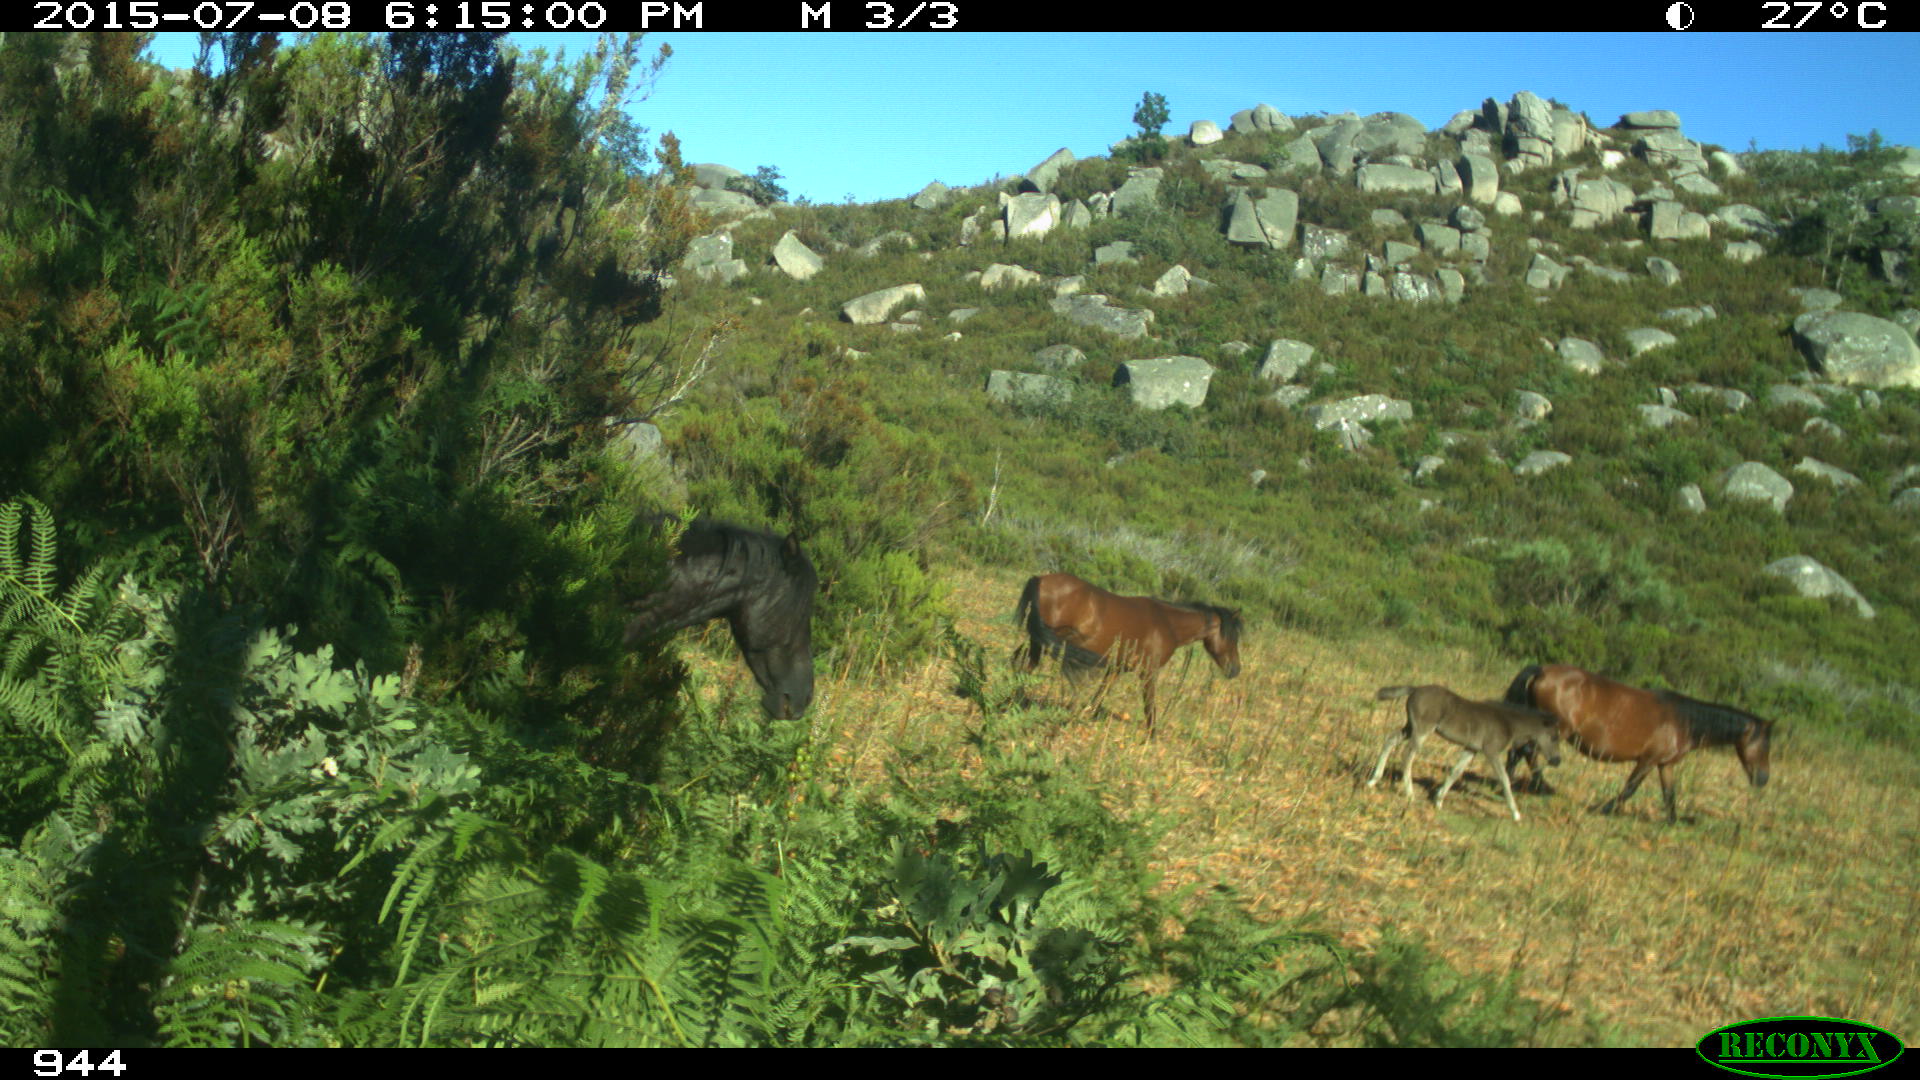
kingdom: Animalia
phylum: Chordata
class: Mammalia
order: Perissodactyla
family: Equidae
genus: Equus
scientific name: Equus caballus
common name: Horse
